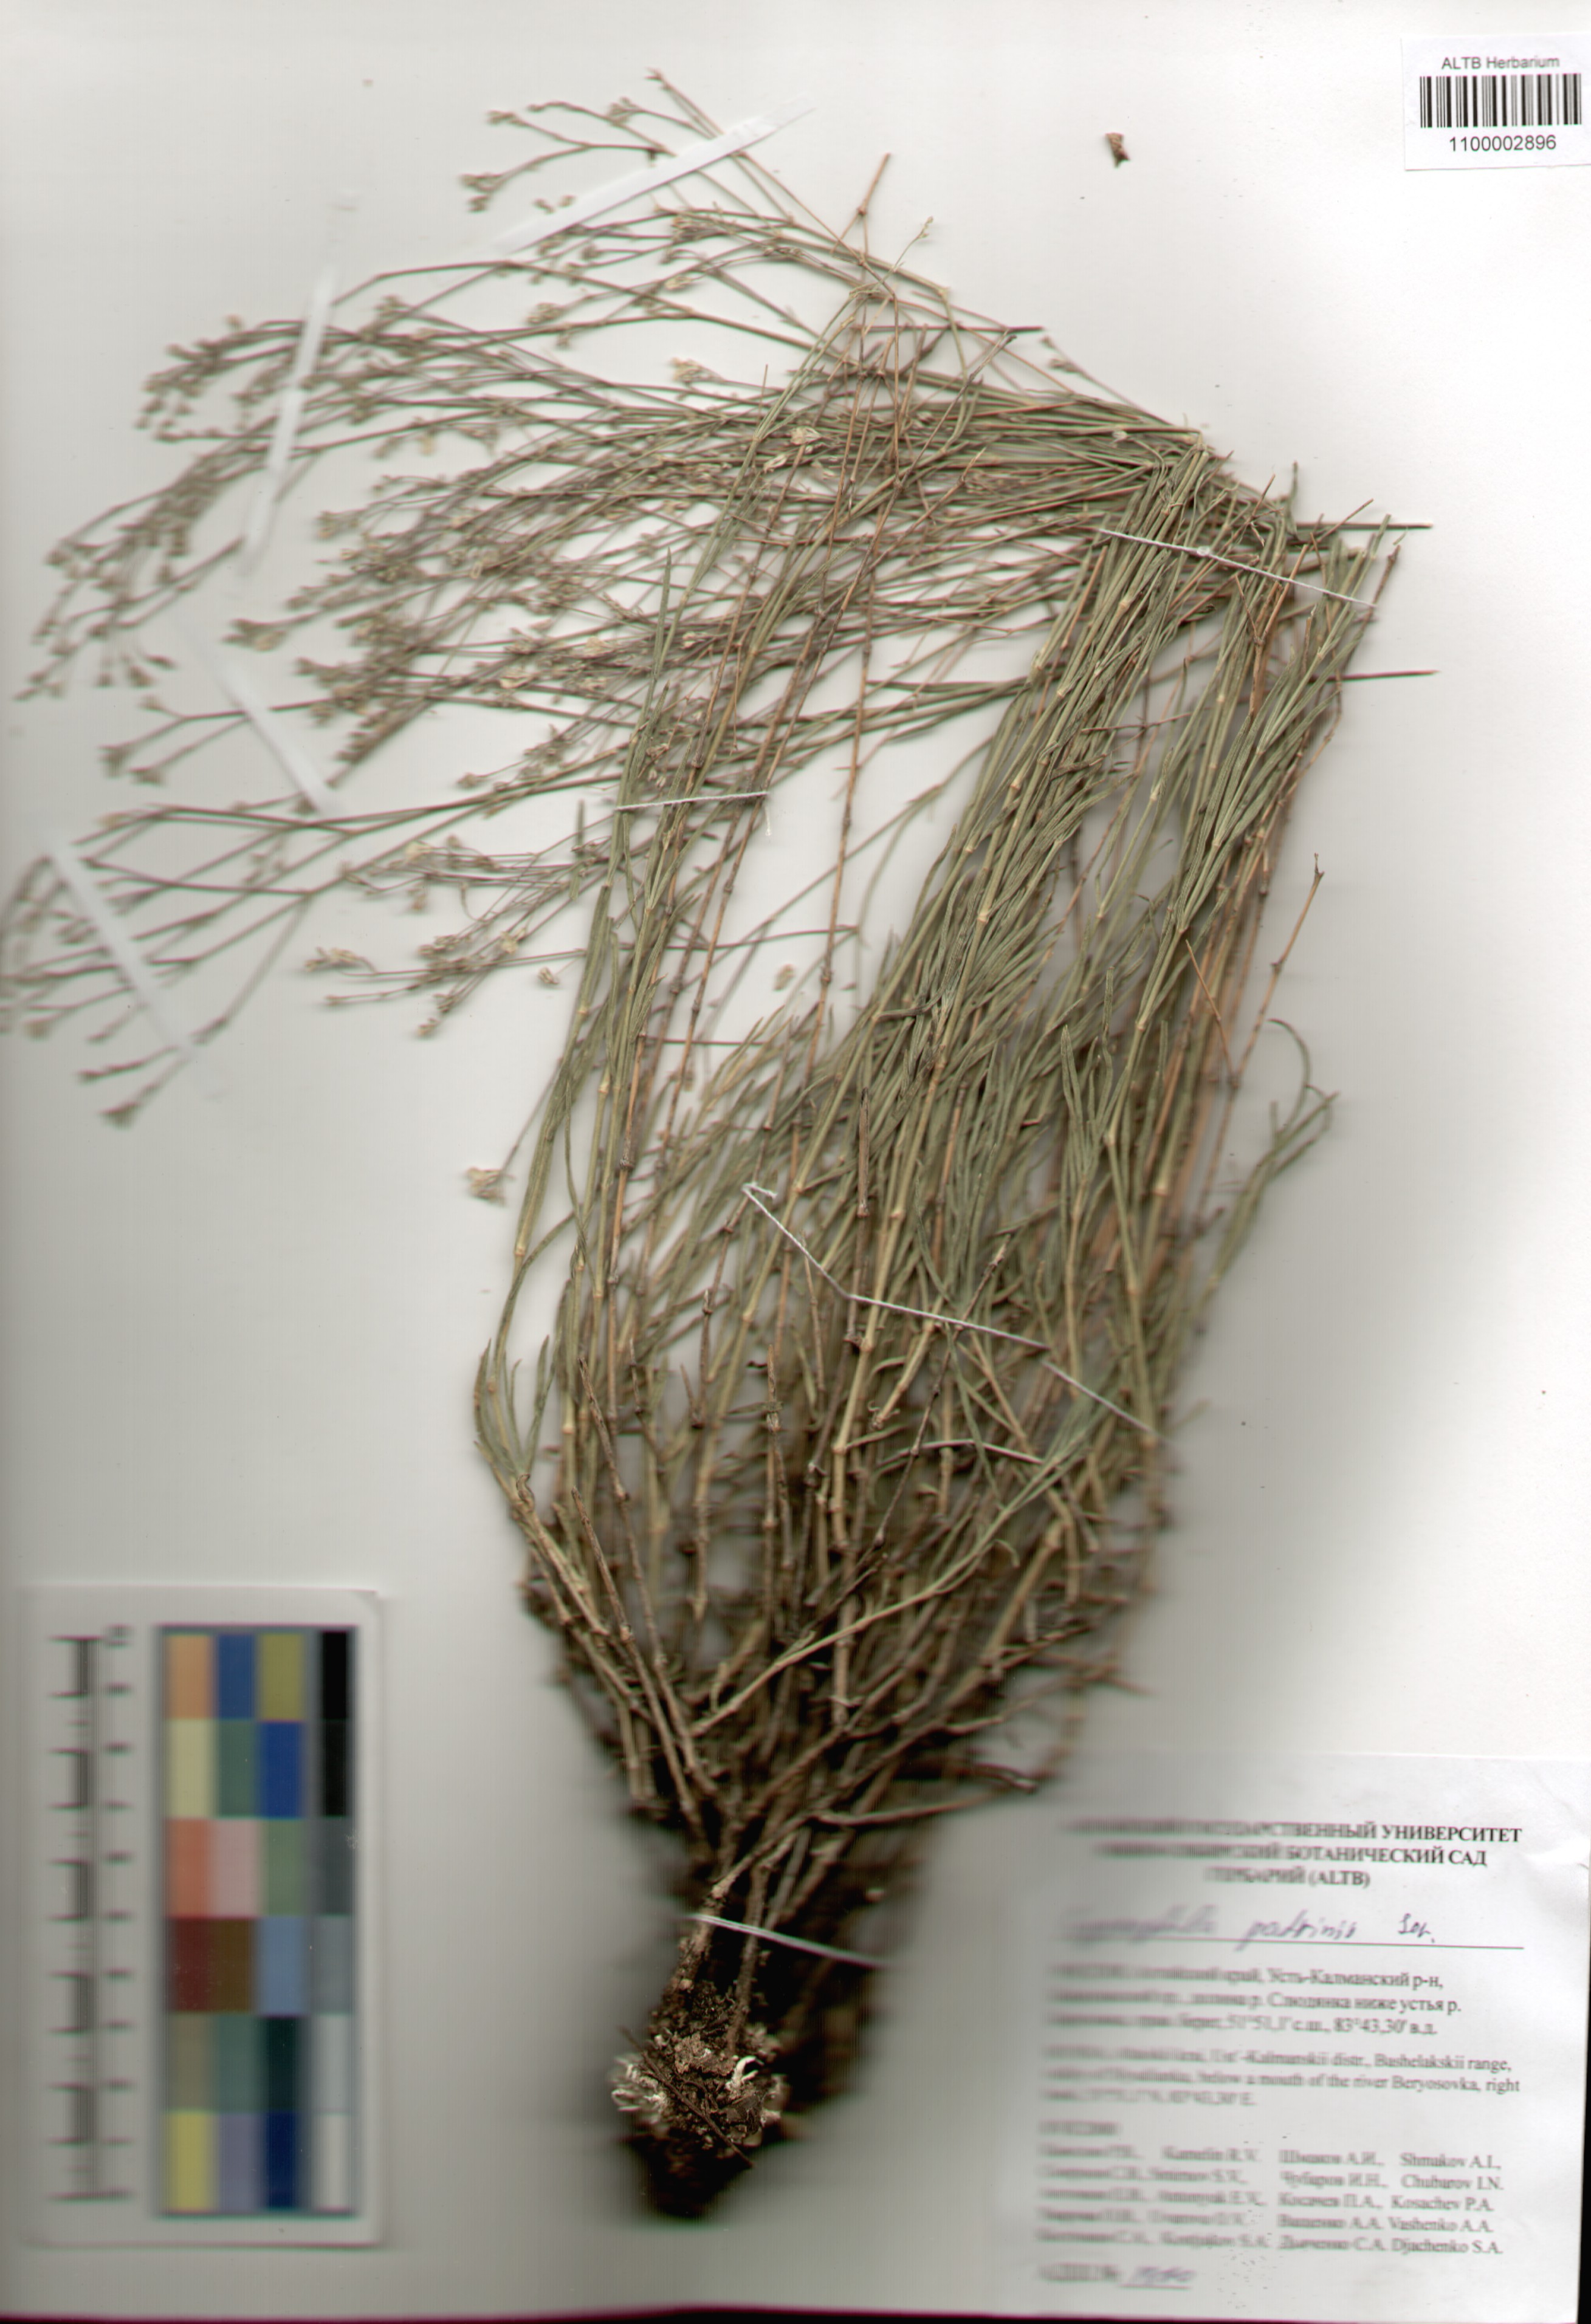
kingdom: Plantae
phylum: Tracheophyta
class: Magnoliopsida
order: Caryophyllales
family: Caryophyllaceae
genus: Gypsophila
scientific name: Gypsophila patrinii
